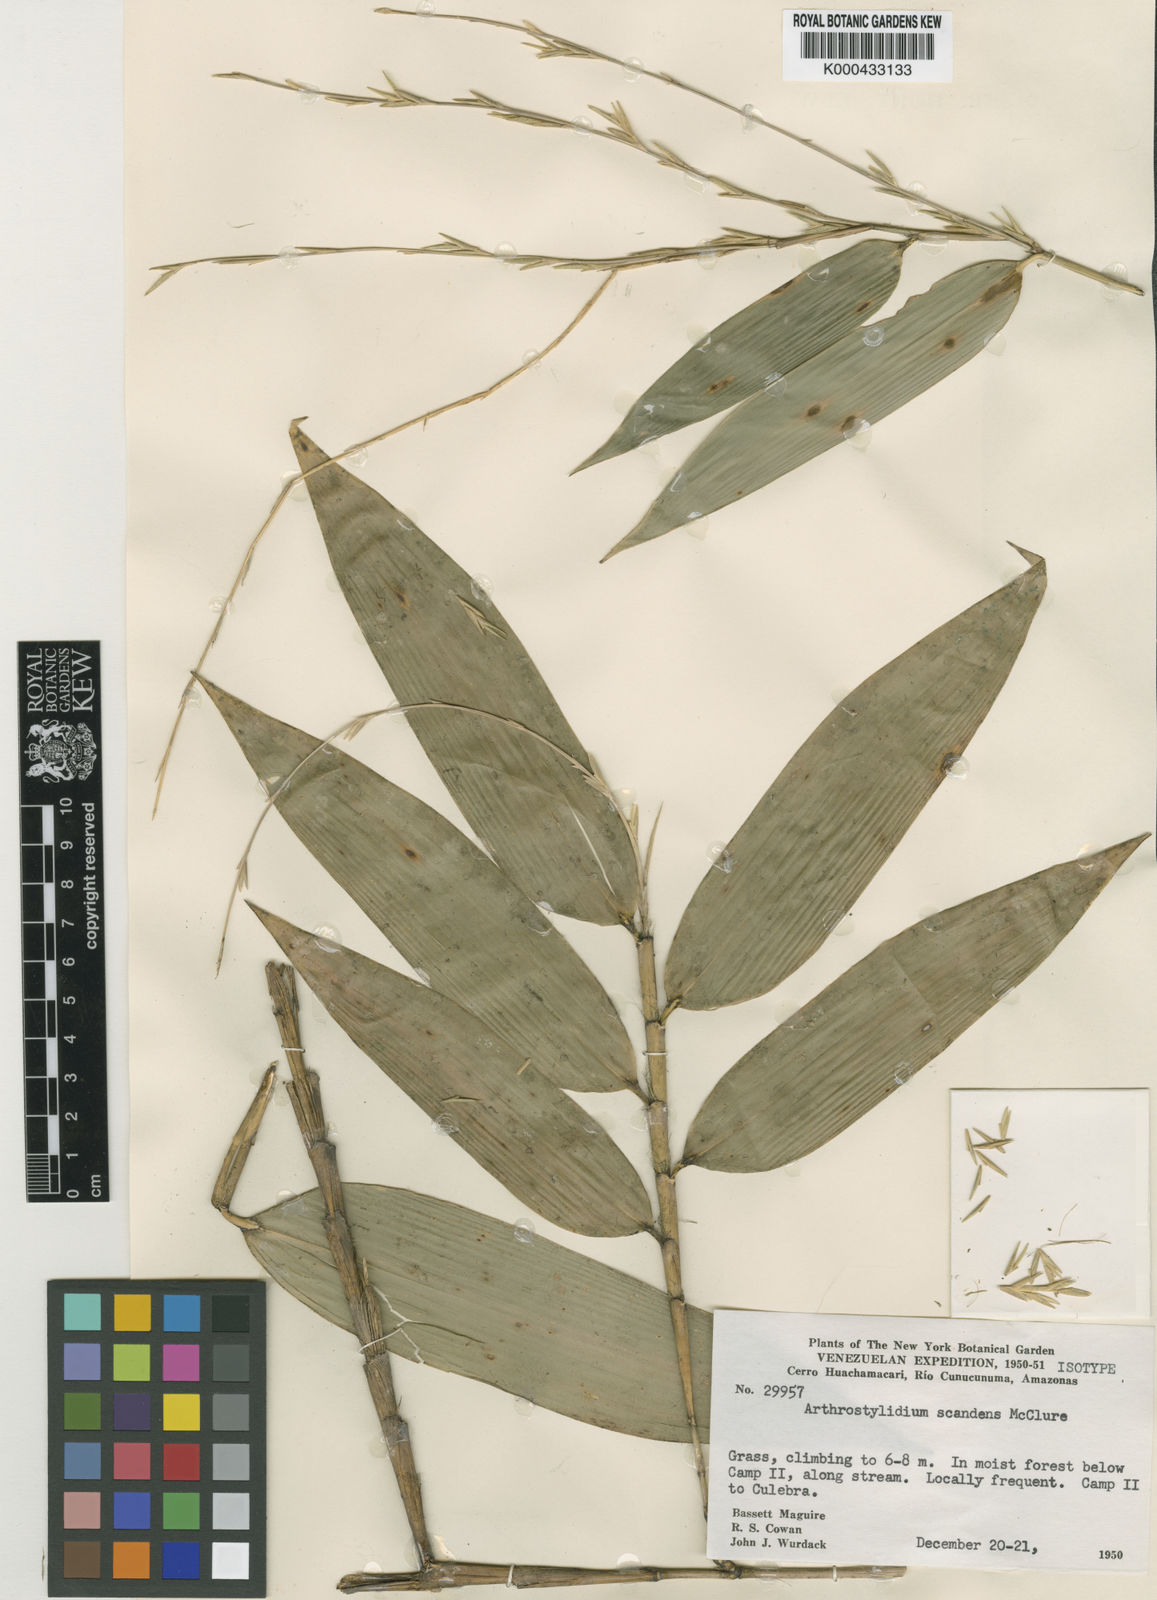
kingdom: Plantae
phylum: Tracheophyta
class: Liliopsida
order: Poales
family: Poaceae
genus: Arthrostylidium
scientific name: Arthrostylidium scandens
